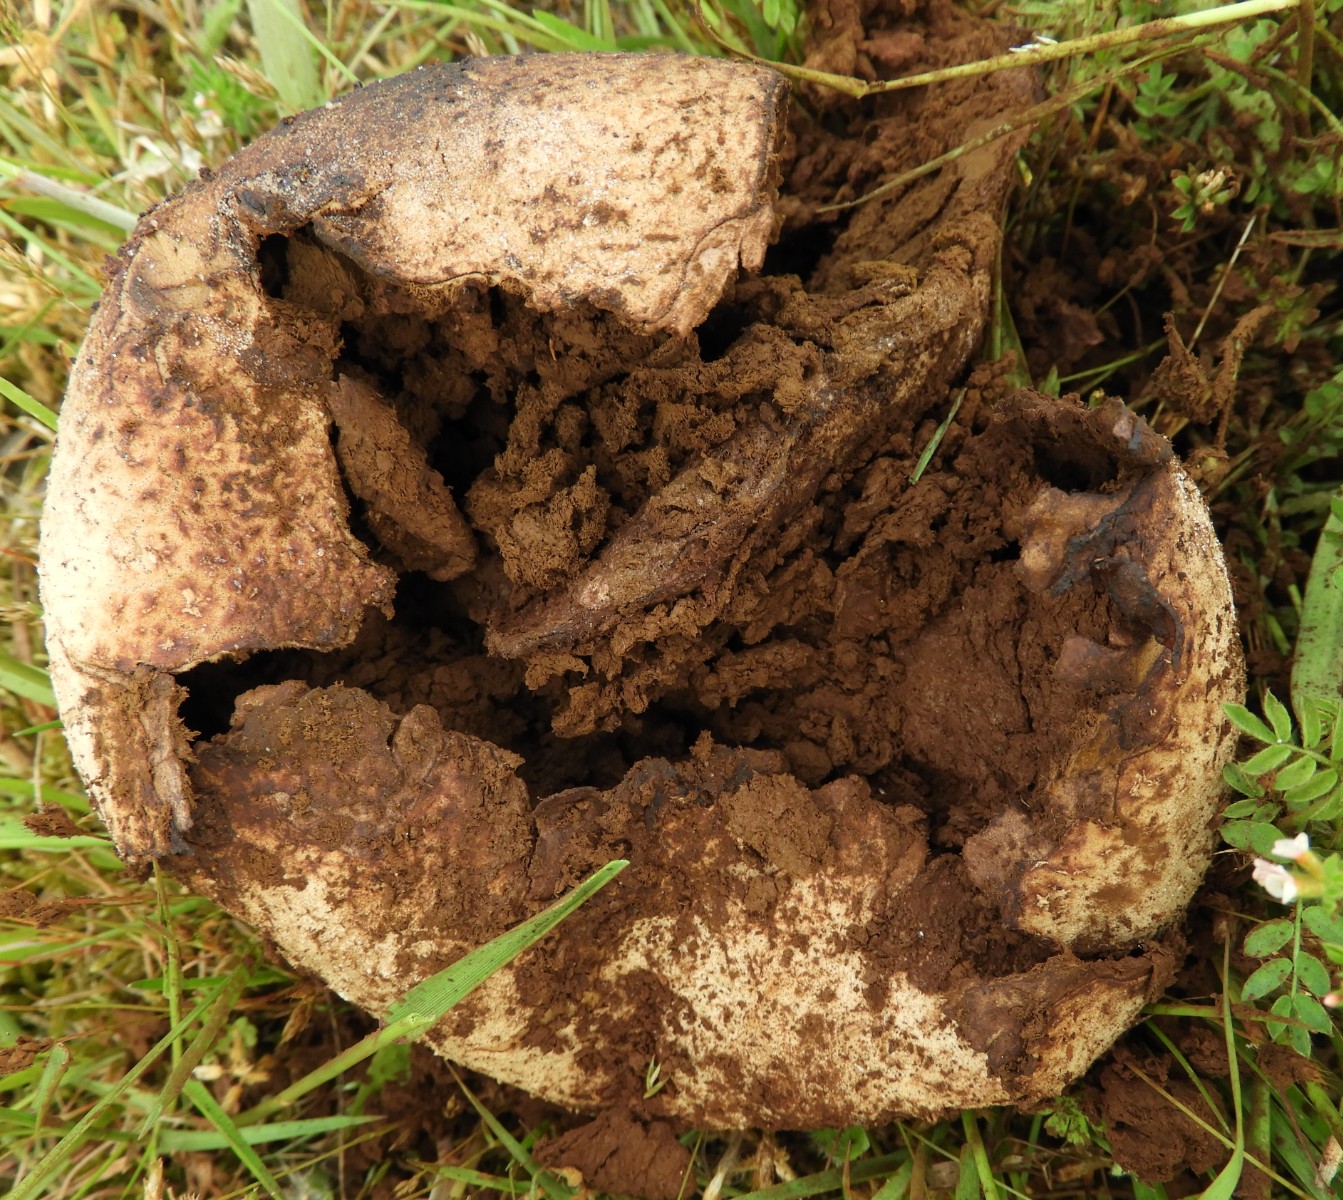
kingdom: Fungi
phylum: Basidiomycota
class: Agaricomycetes
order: Agaricales
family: Lycoperdaceae
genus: Bovistella
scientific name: Bovistella utriformis
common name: skællet støvbold
